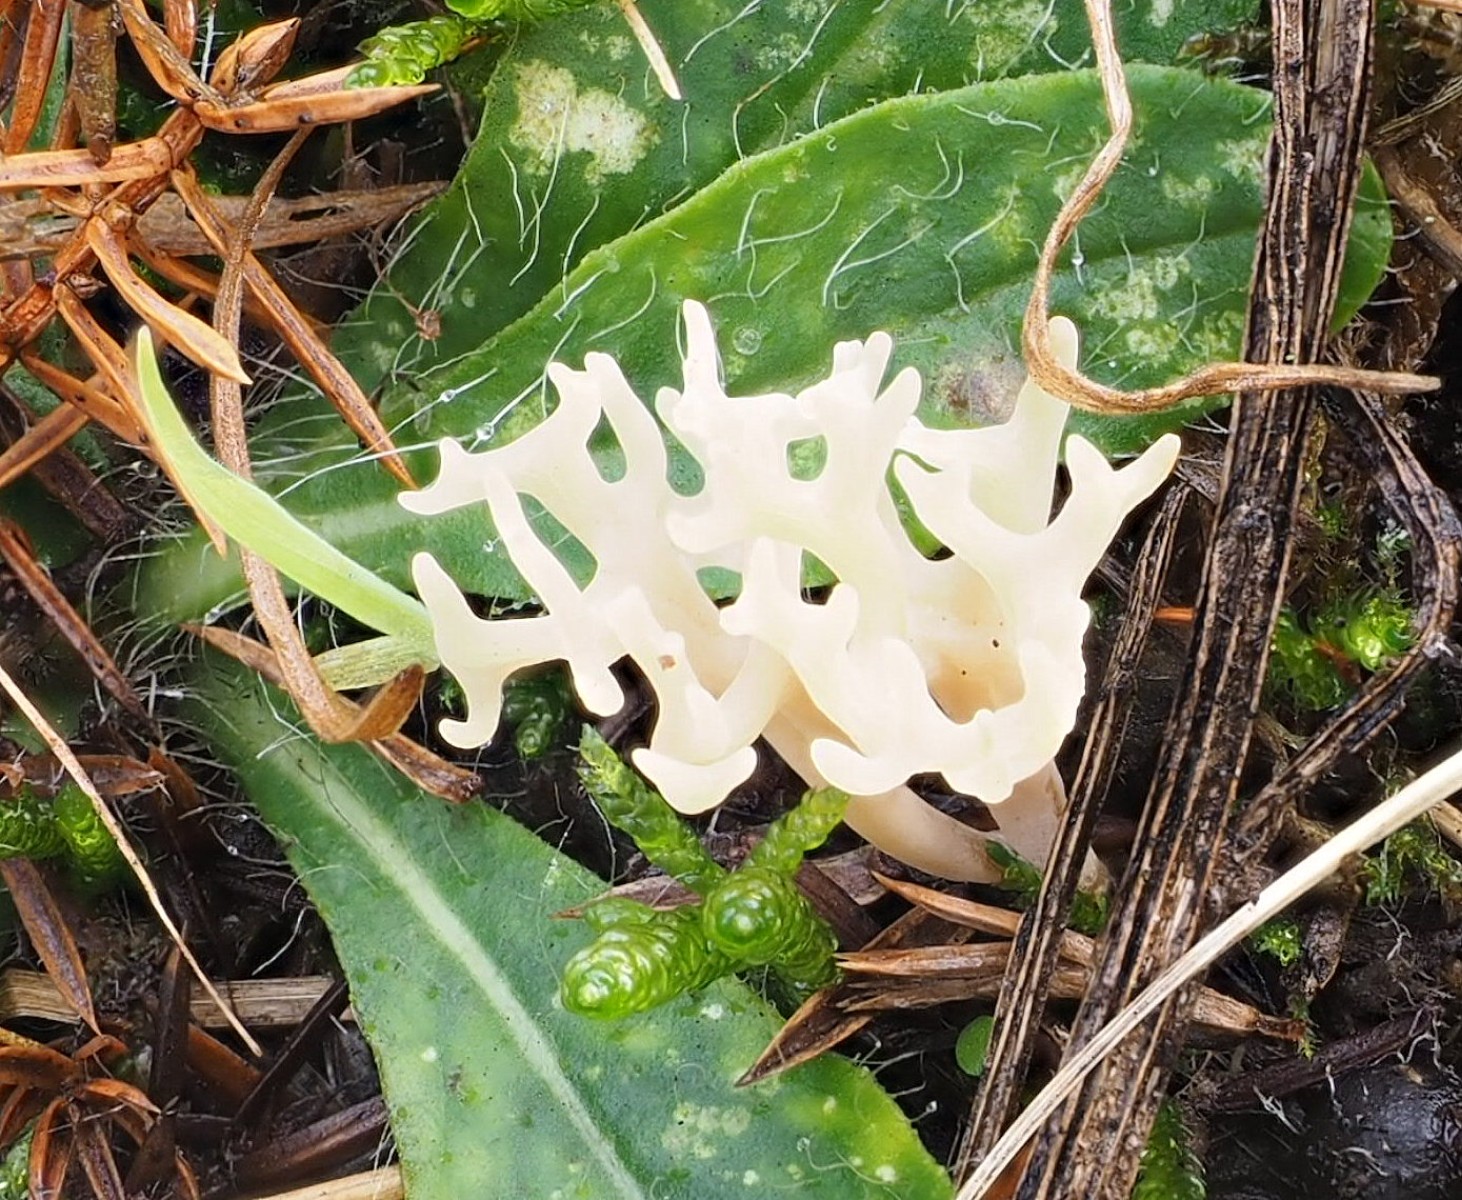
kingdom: Fungi
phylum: Basidiomycota
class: Agaricomycetes
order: Agaricales
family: Clavariaceae
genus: Ramariopsis
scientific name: Ramariopsis
